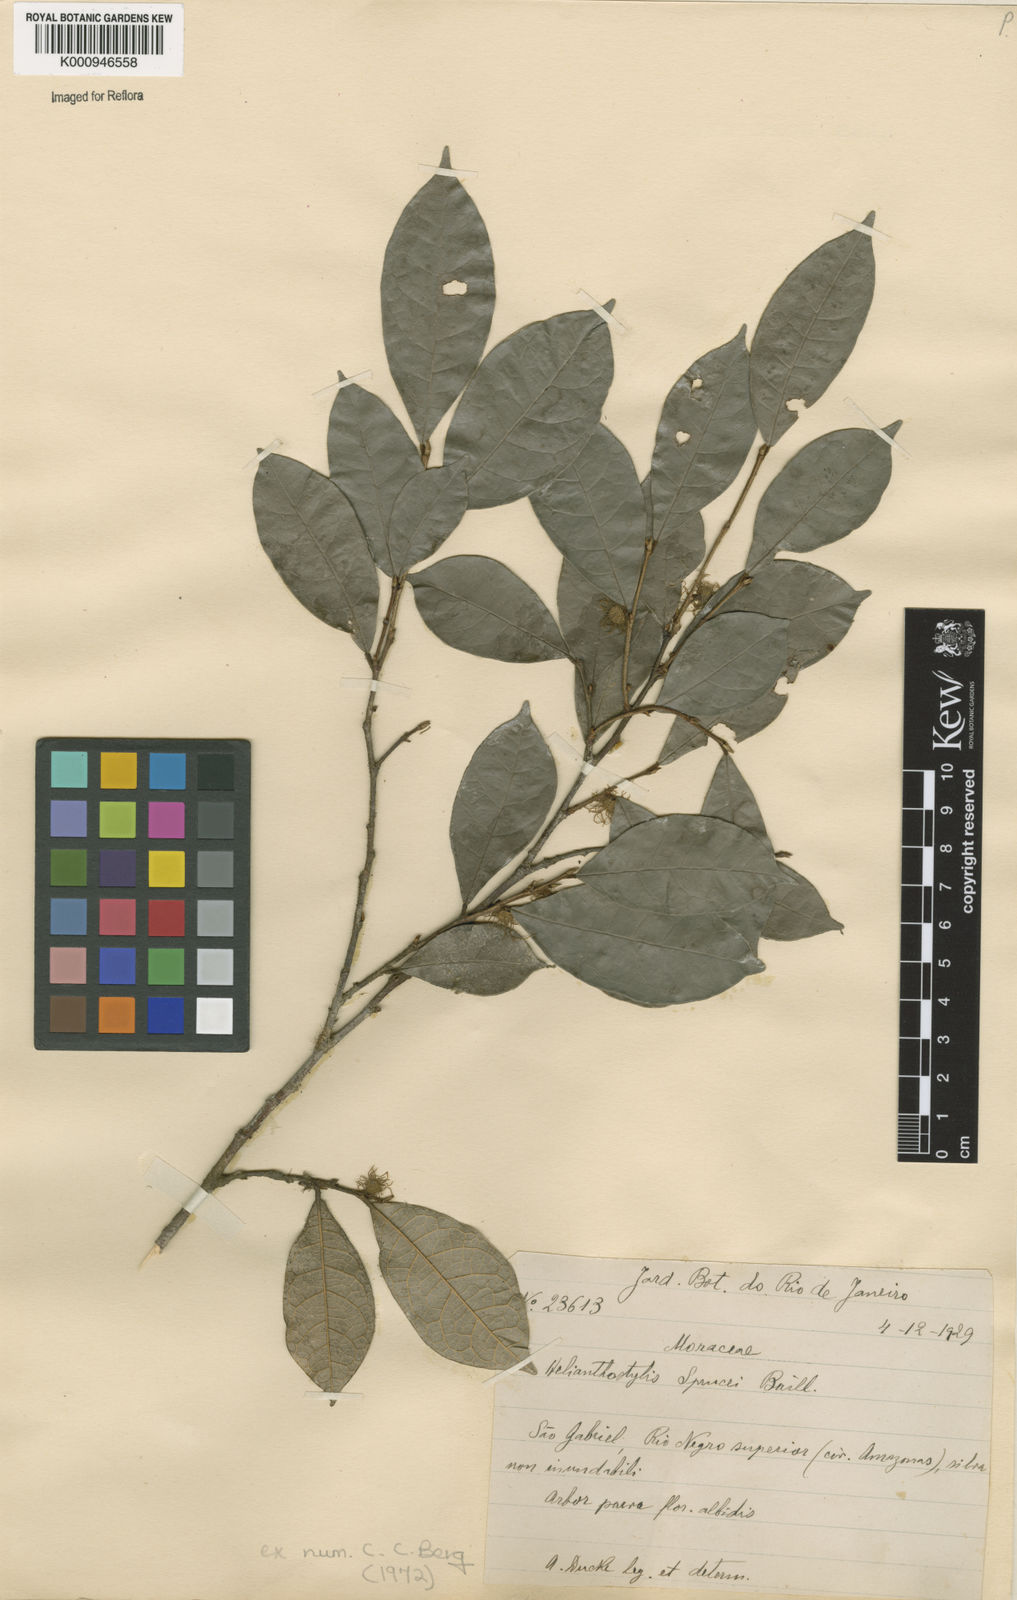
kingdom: Plantae
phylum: Tracheophyta
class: Magnoliopsida
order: Rosales
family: Moraceae
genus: Brosimum
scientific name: Brosimum sprucei
